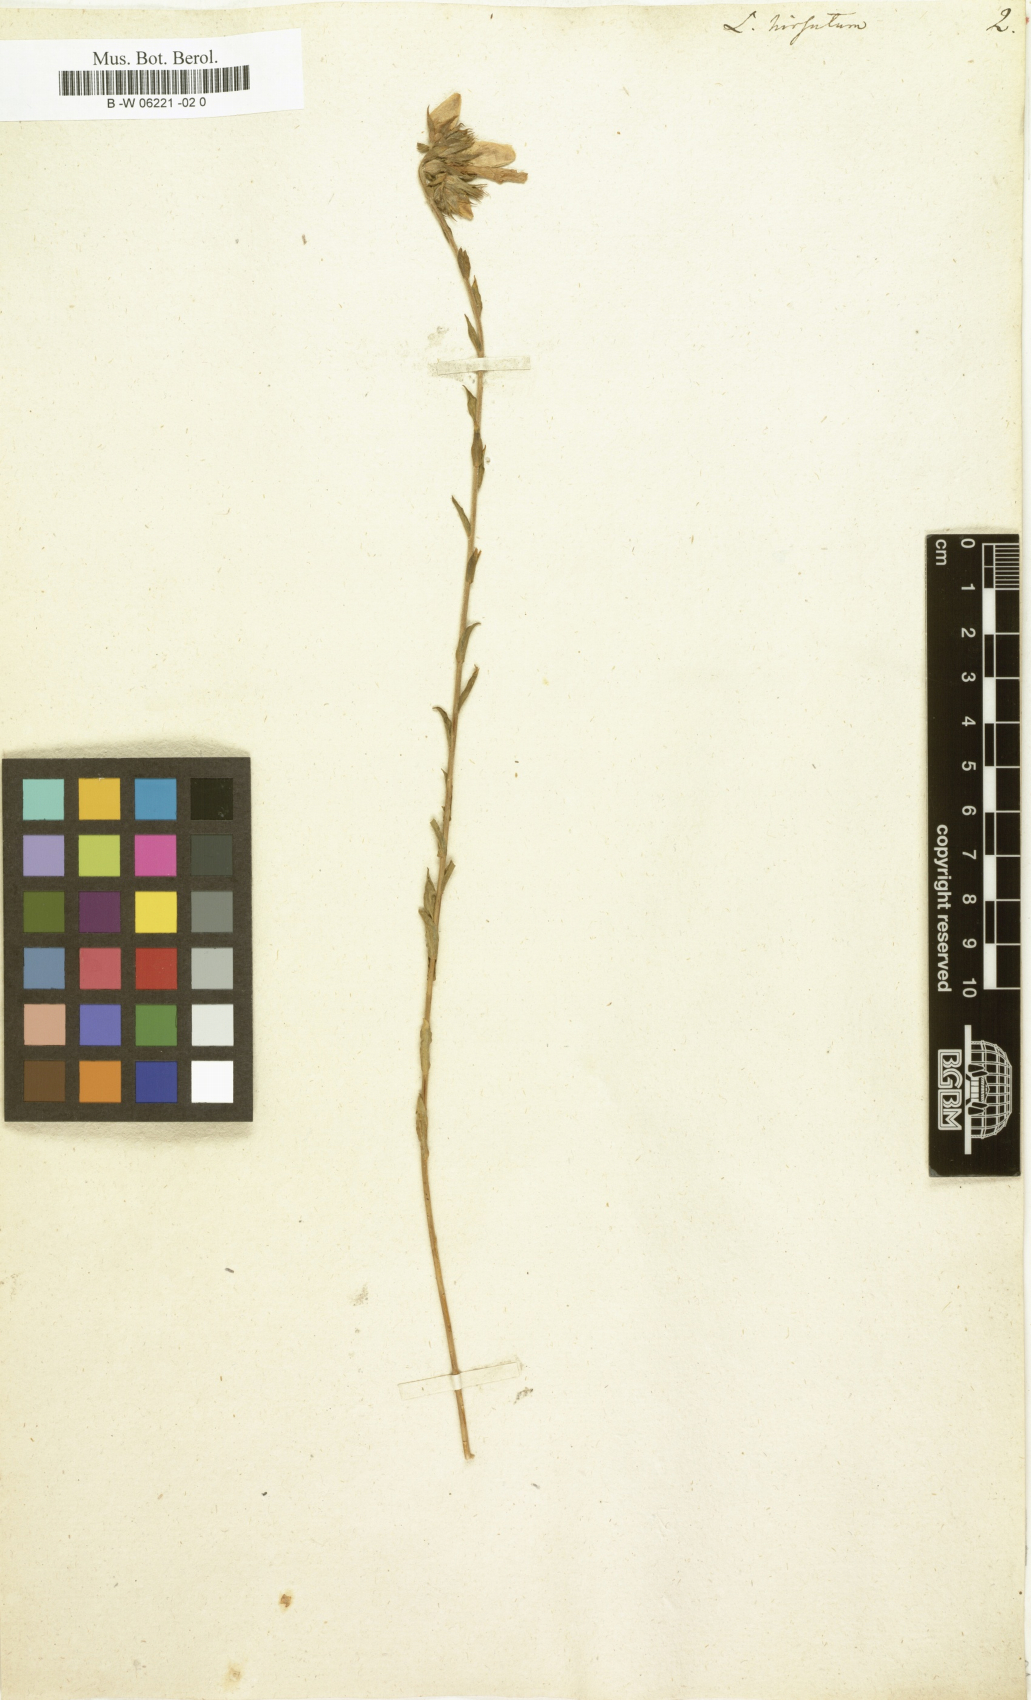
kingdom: Plantae
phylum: Tracheophyta
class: Magnoliopsida
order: Malpighiales
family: Linaceae
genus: Linum
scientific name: Linum hirsutum
